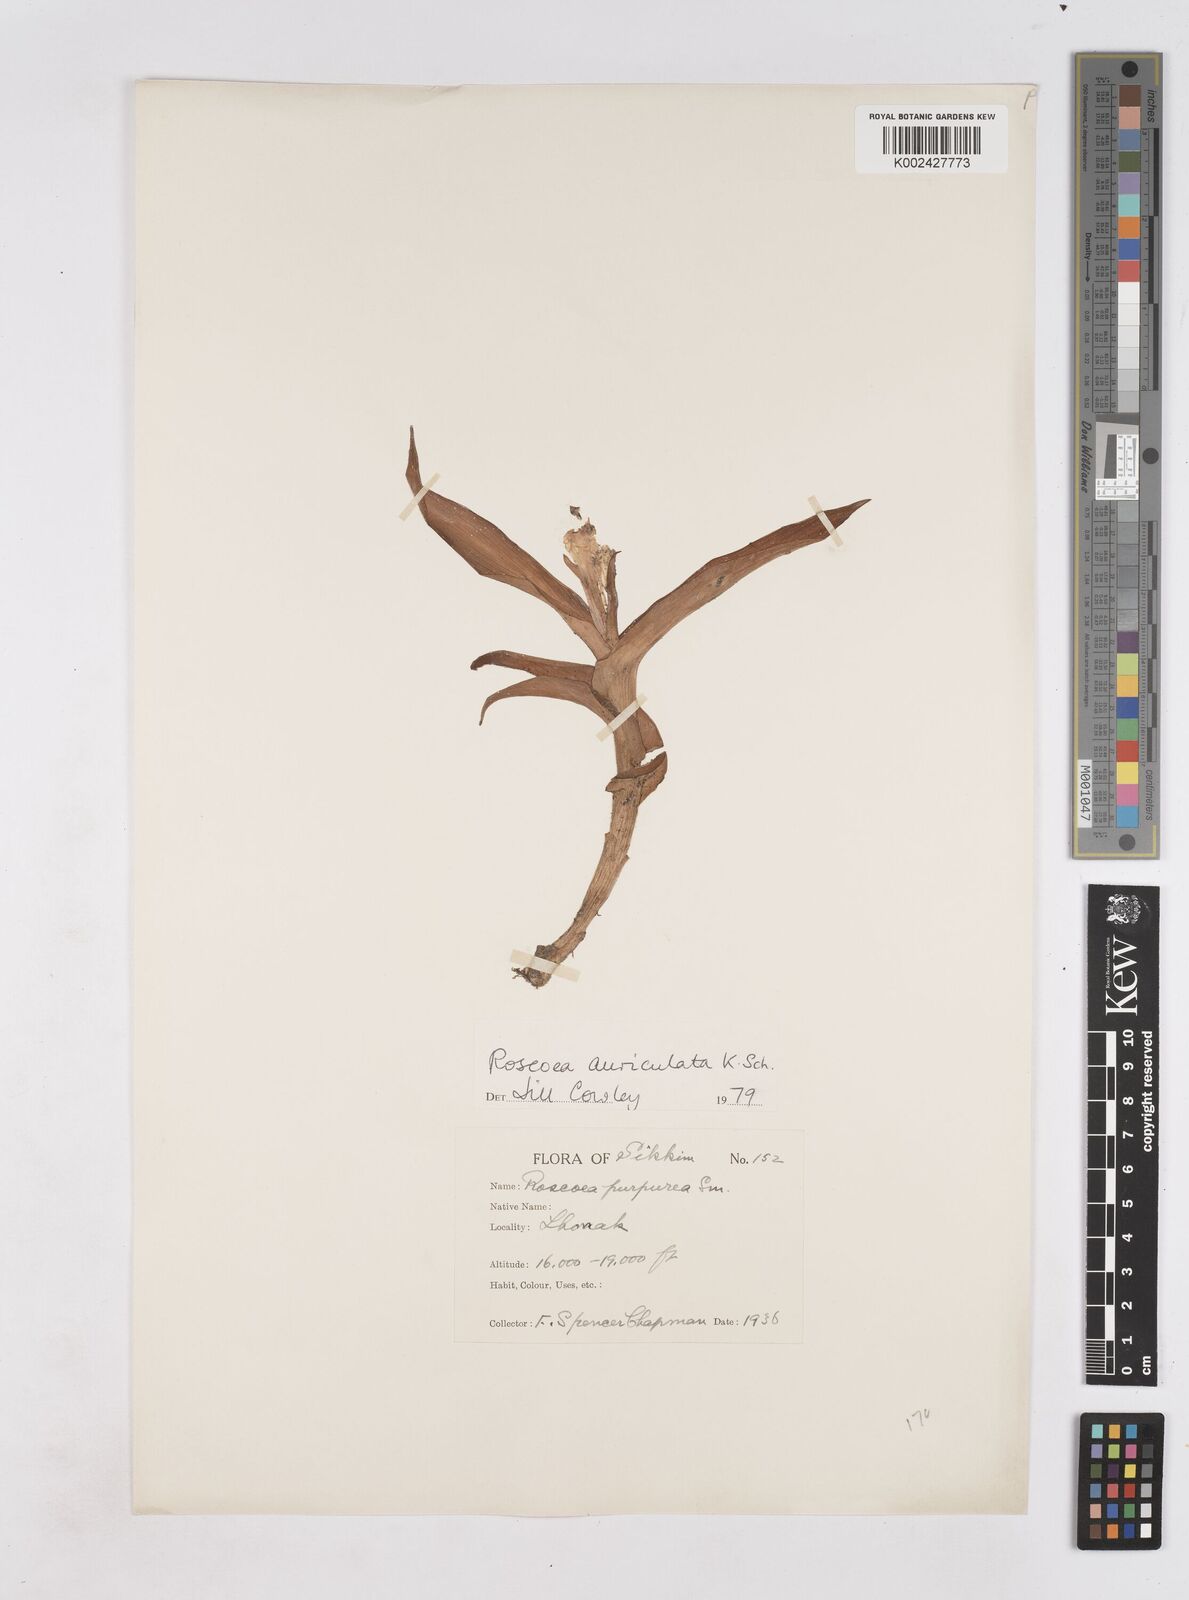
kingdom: Plantae
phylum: Tracheophyta
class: Liliopsida
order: Zingiberales
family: Zingiberaceae
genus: Roscoea
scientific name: Roscoea auriculata
